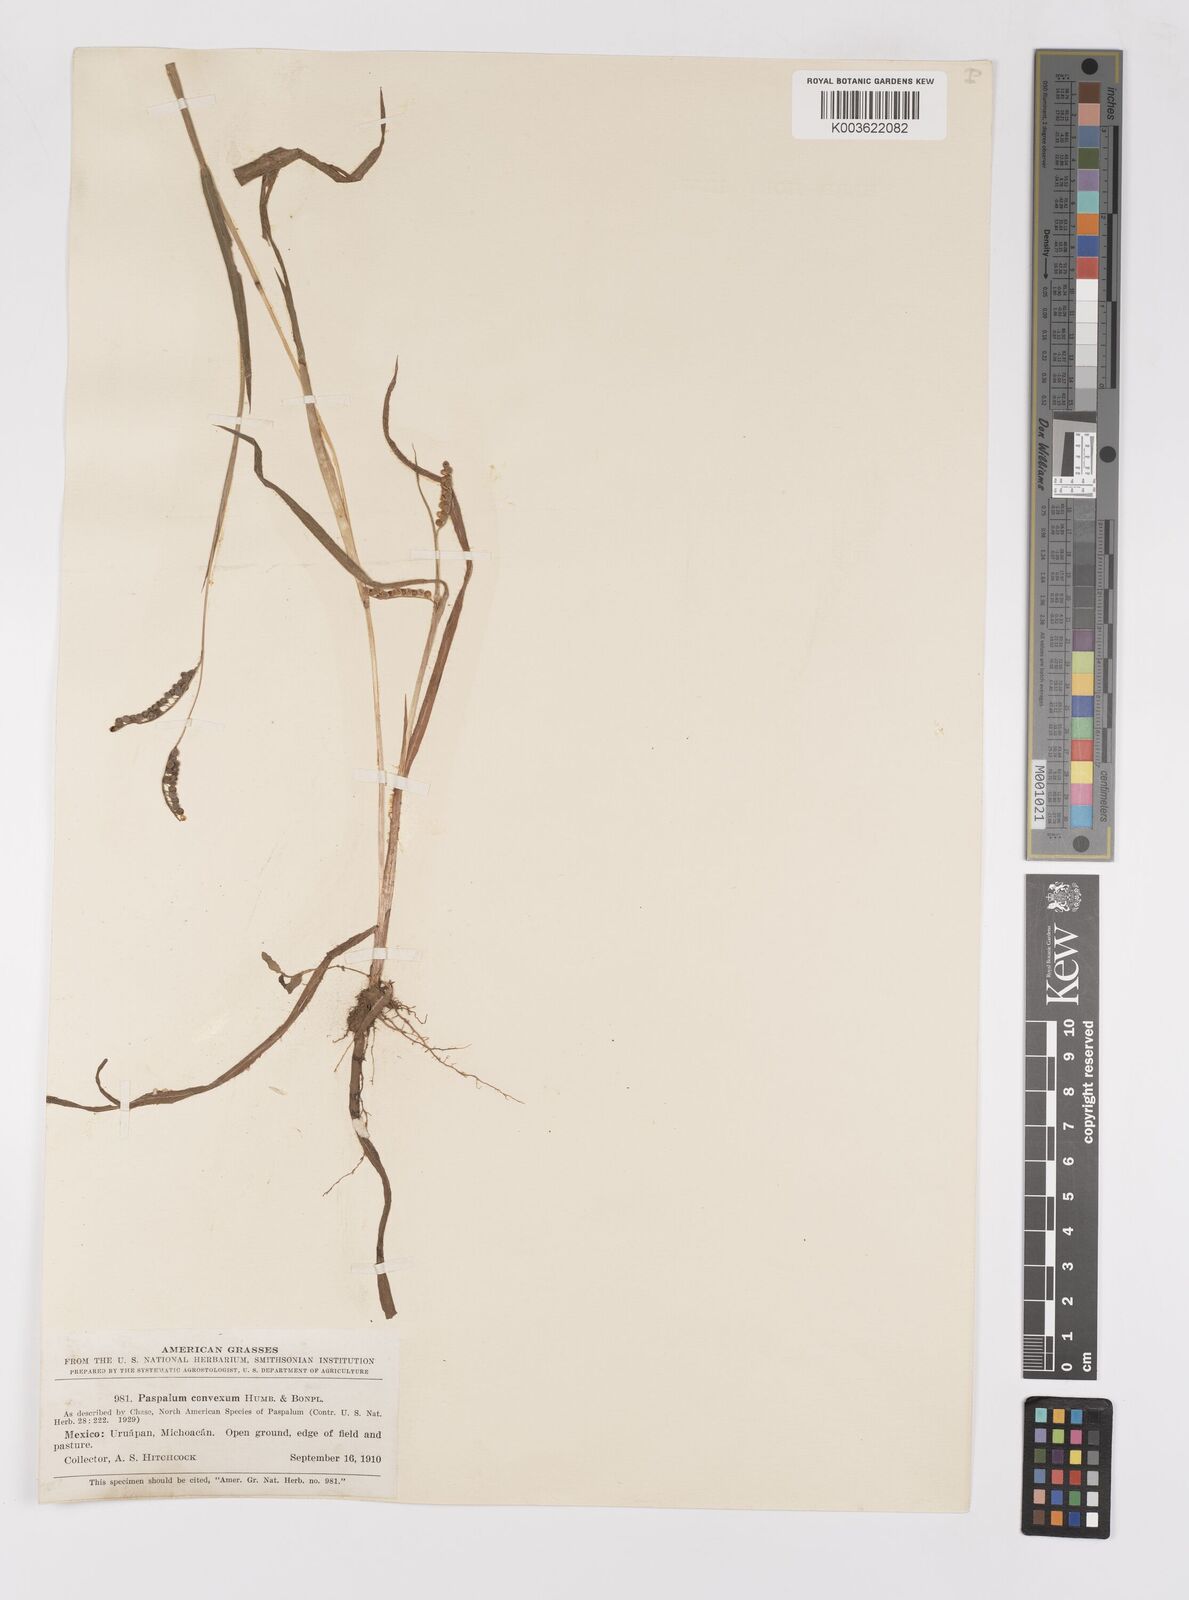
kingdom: Plantae
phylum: Tracheophyta
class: Liliopsida
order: Poales
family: Poaceae
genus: Paspalum
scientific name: Paspalum convexum
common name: Latin american crowngrass
